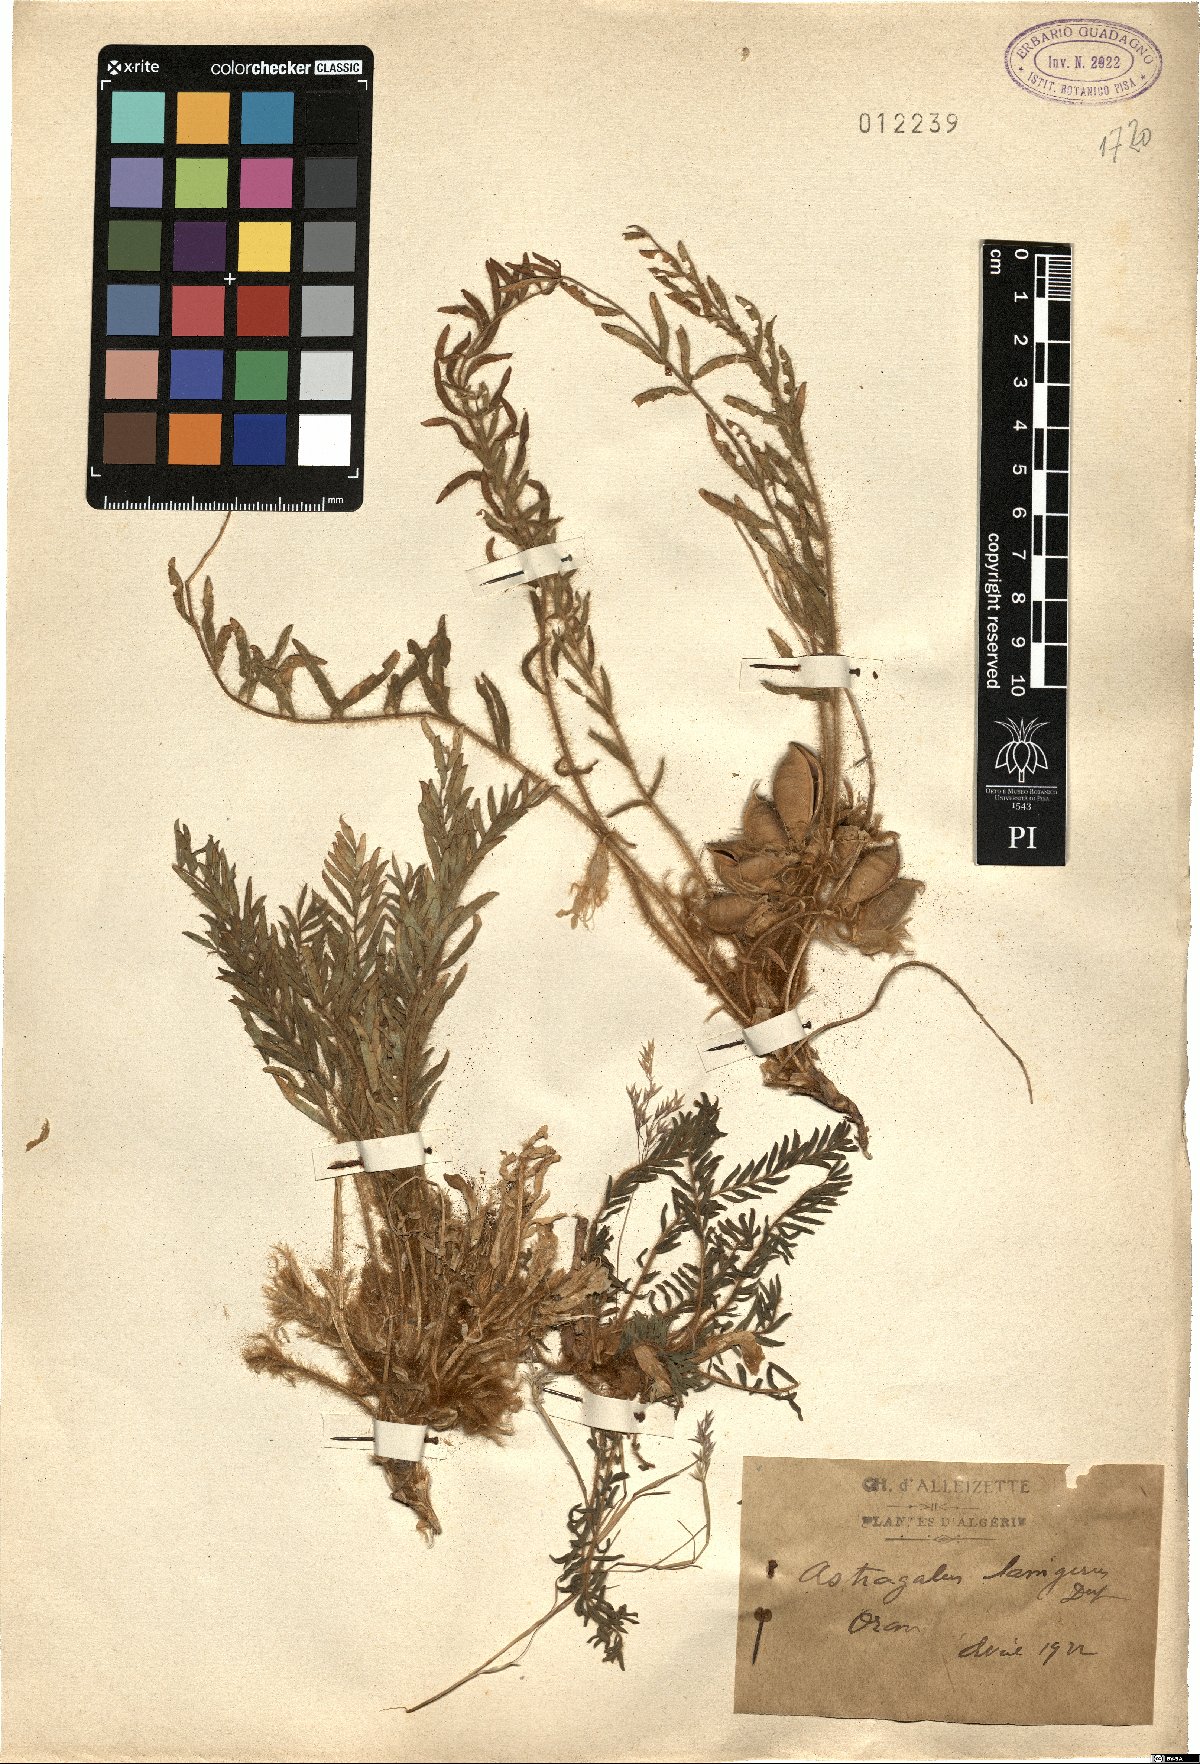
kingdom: Plantae
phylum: Tracheophyta
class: Magnoliopsida
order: Fabales
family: Fabaceae
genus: Astragalus
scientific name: Astragalus caprinus
